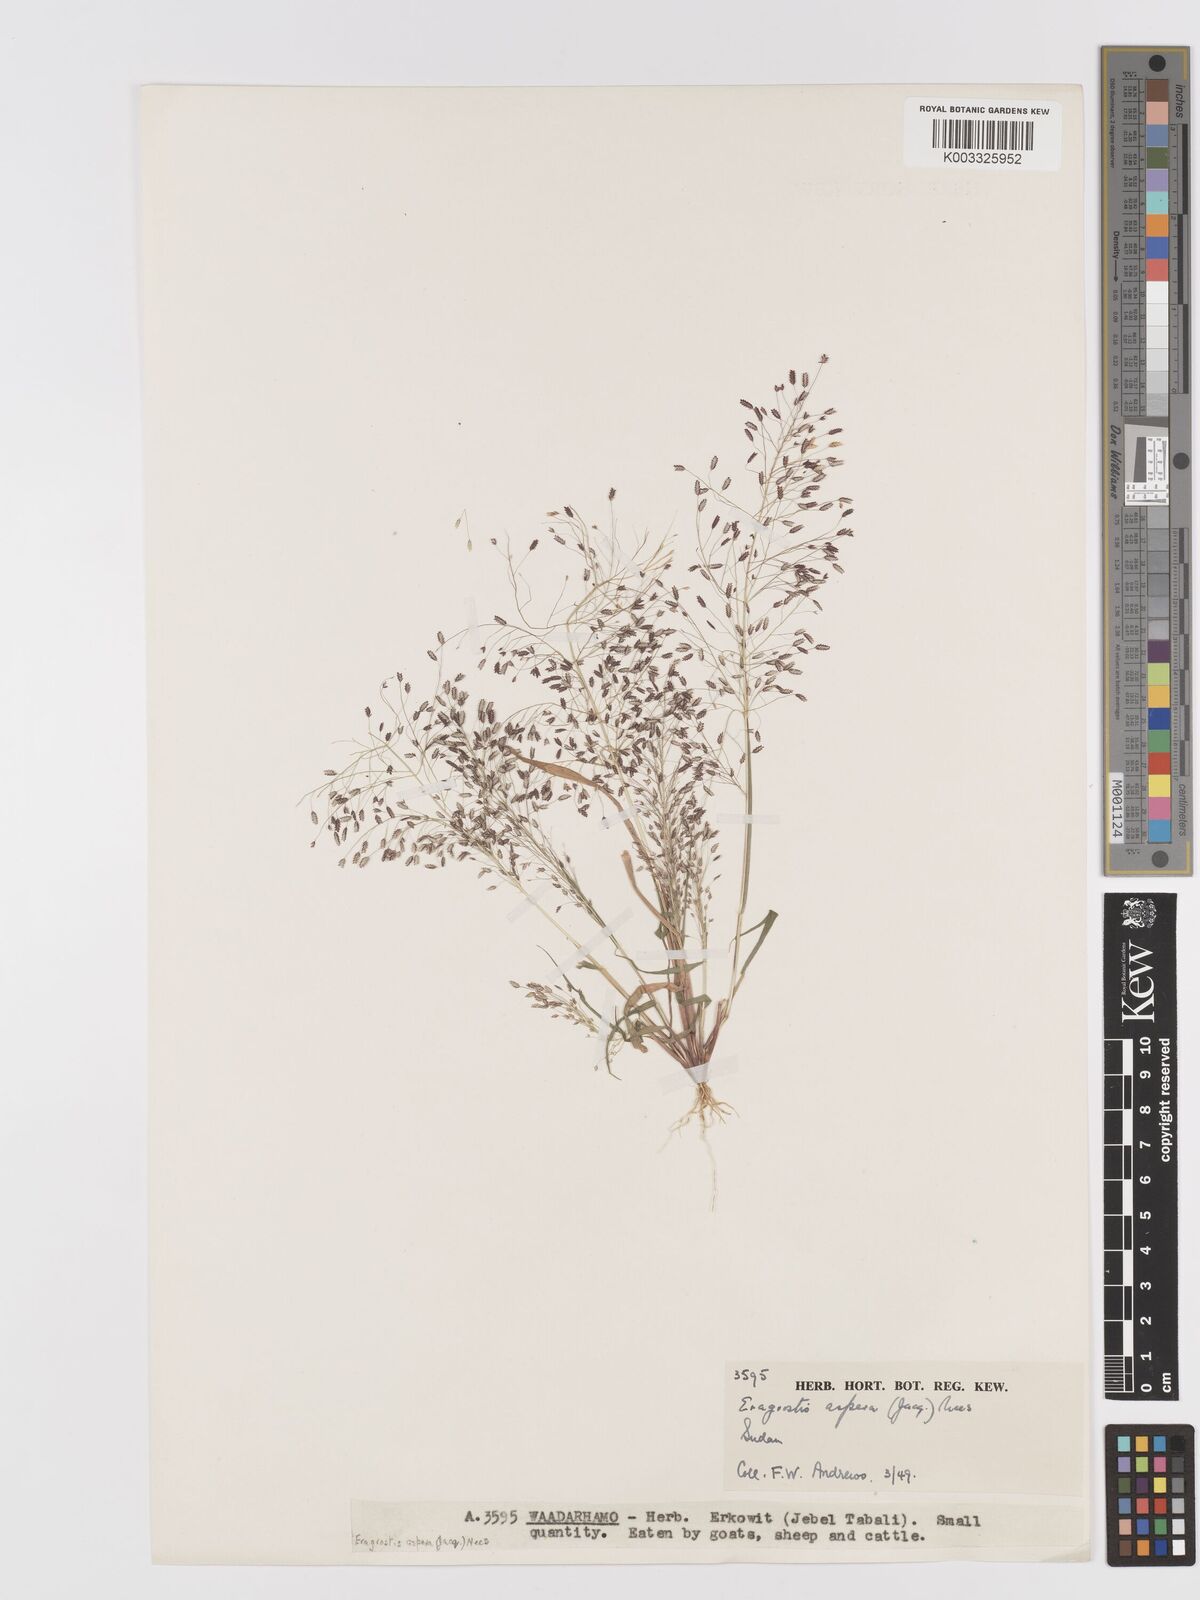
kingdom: Plantae
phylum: Tracheophyta
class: Liliopsida
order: Poales
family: Poaceae
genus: Eragrostis
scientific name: Eragrostis aspera
